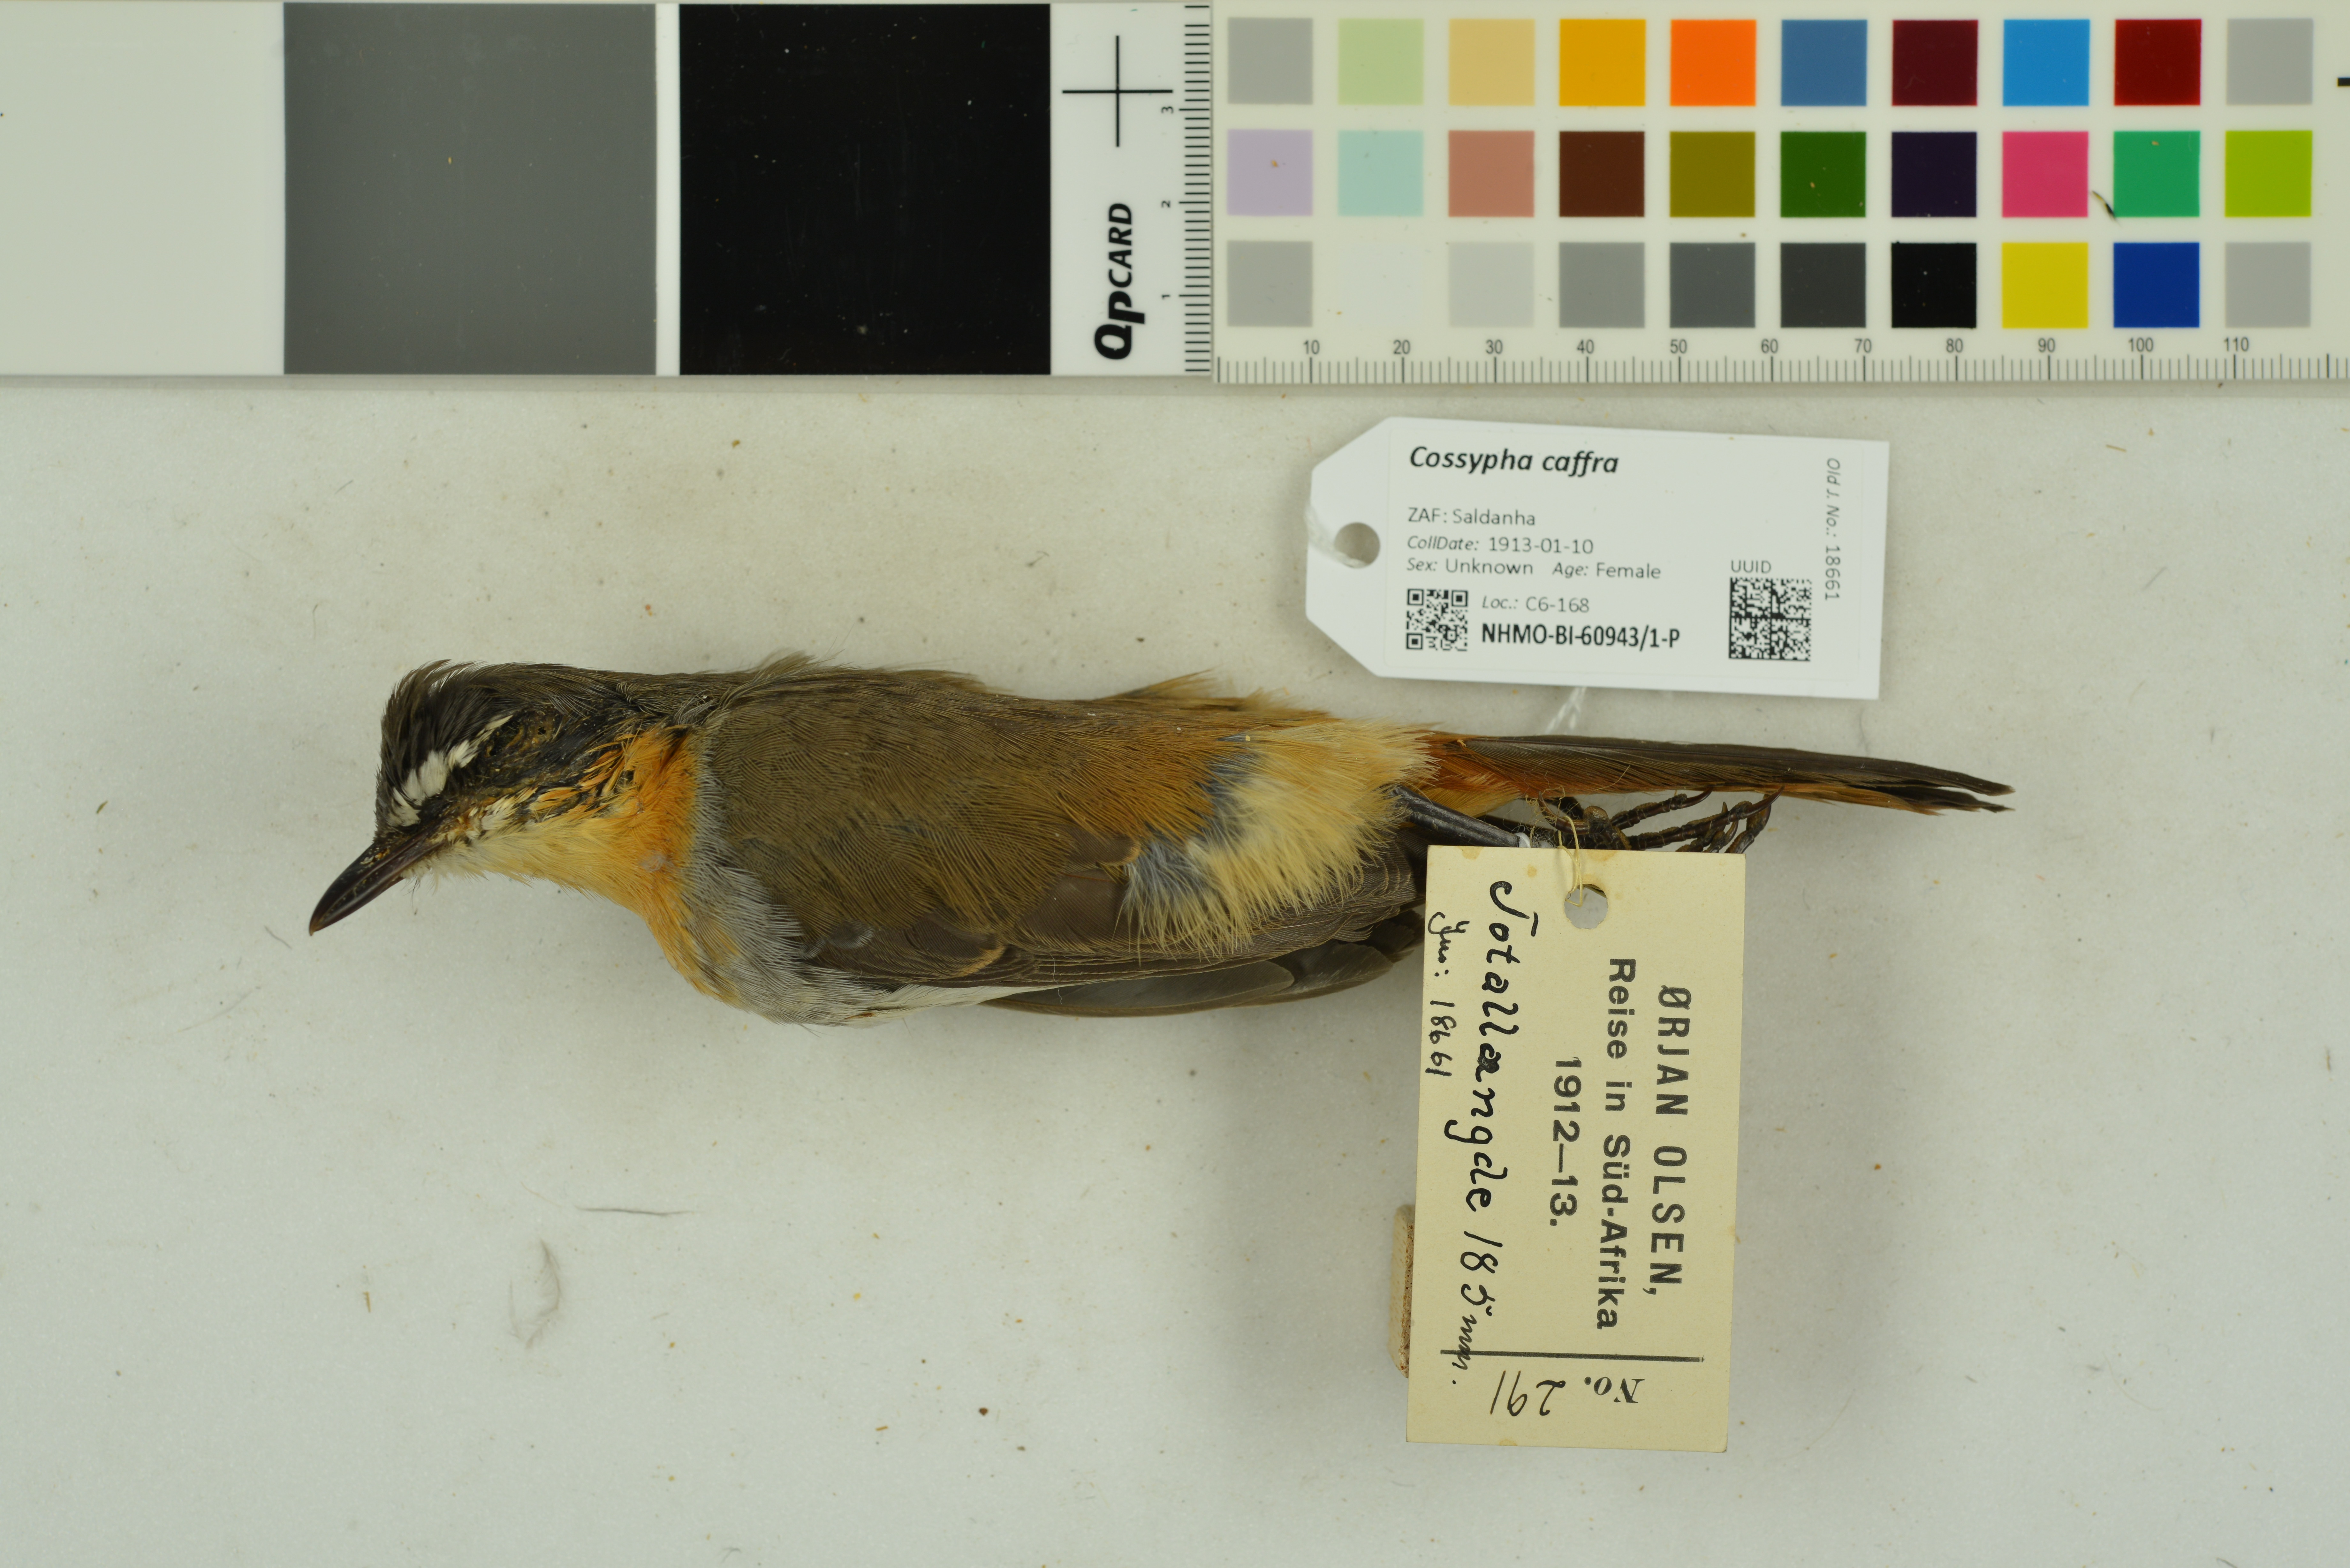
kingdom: Animalia
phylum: Chordata
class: Aves
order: Passeriformes
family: Muscicapidae
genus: Cossypha
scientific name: Cossypha caffra
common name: Cape robin-chat
